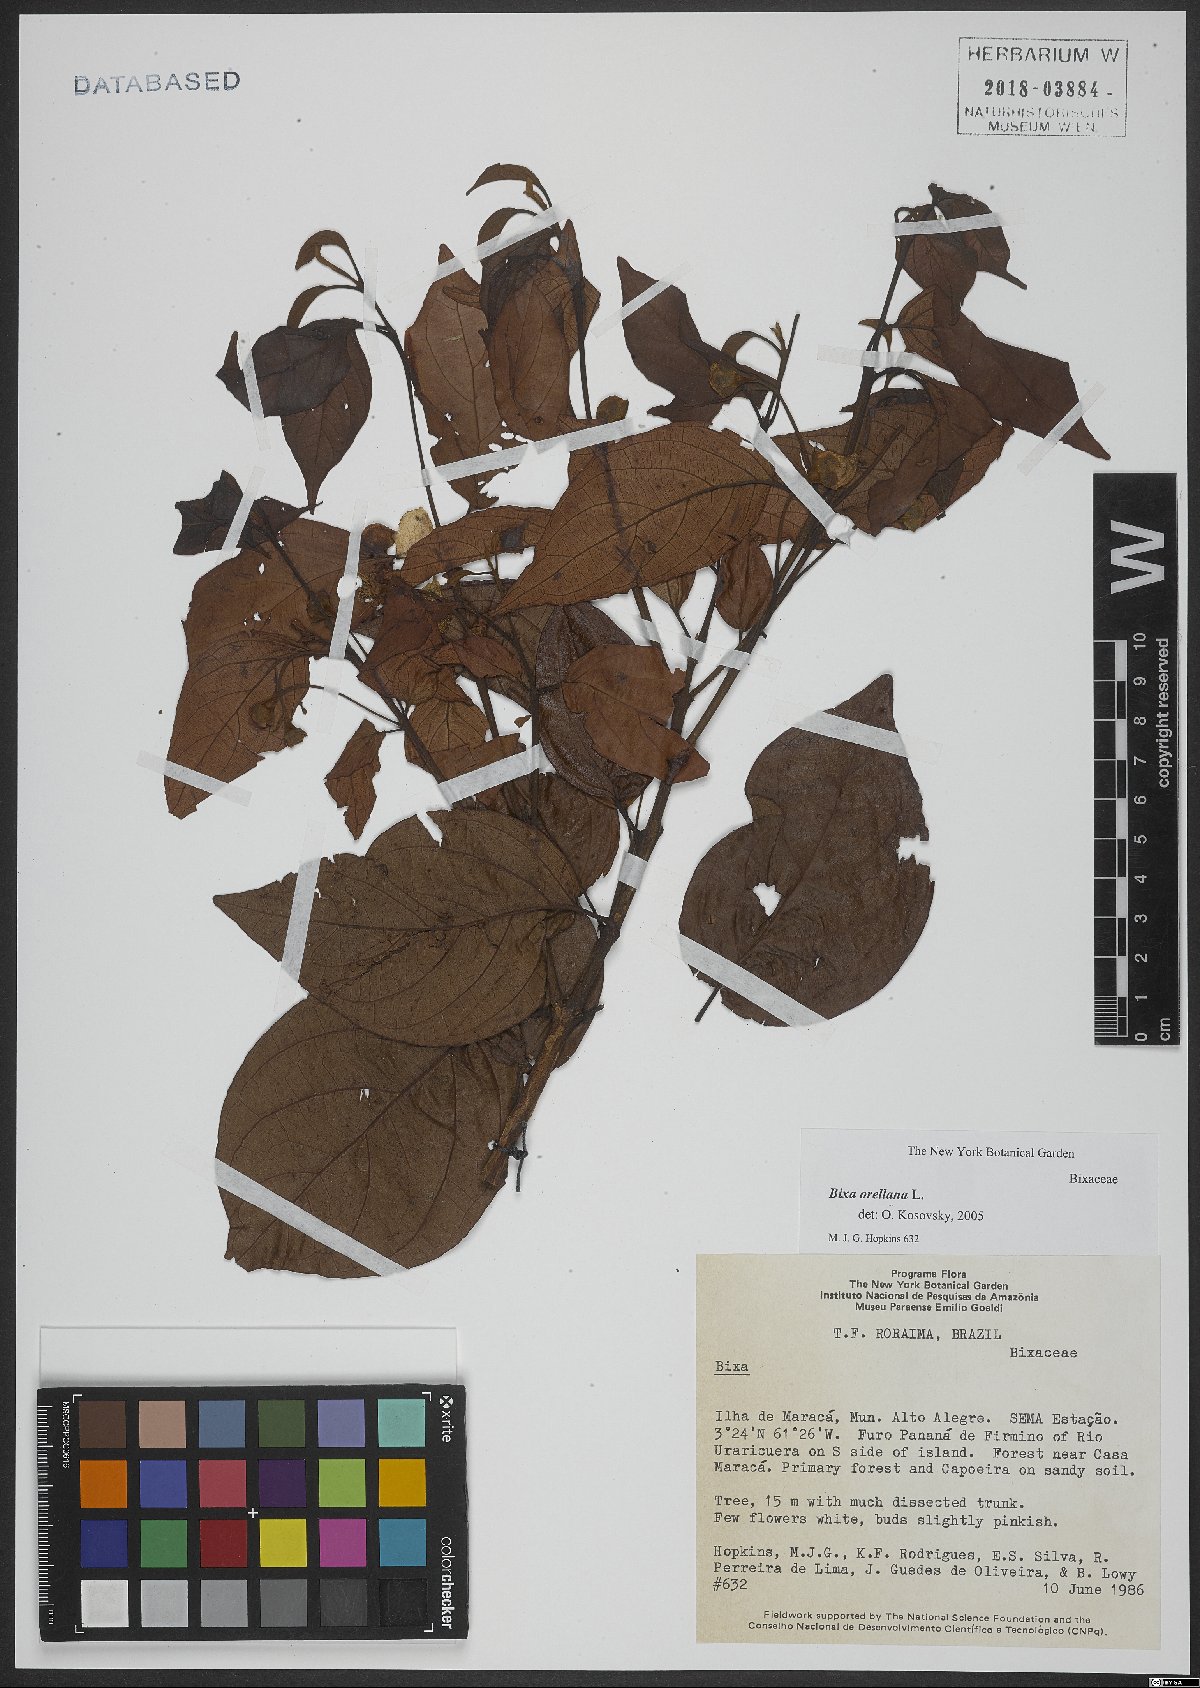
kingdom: Plantae
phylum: Tracheophyta
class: Magnoliopsida
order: Malvales
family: Bixaceae
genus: Bixa
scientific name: Bixa orellana
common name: Lipsticktree
